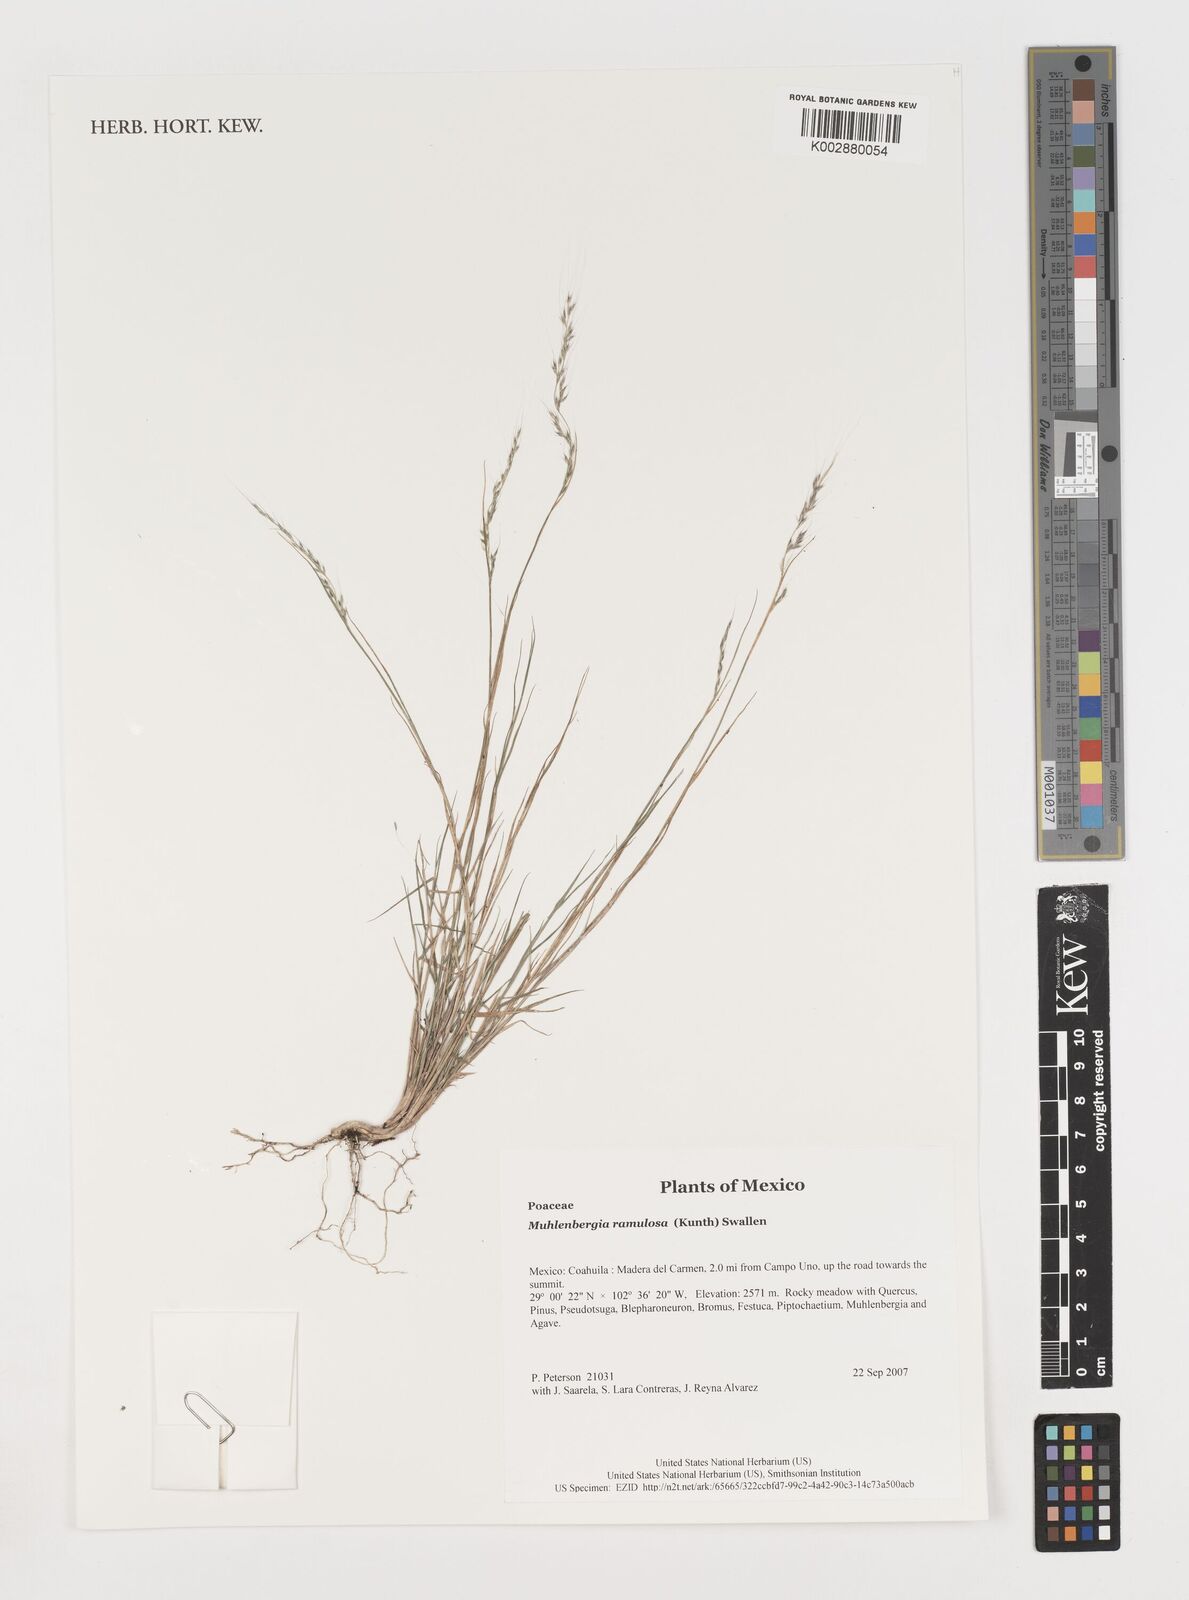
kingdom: Plantae
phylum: Tracheophyta
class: Liliopsida
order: Poales
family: Poaceae
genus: Muhlenbergia
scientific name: Muhlenbergia
